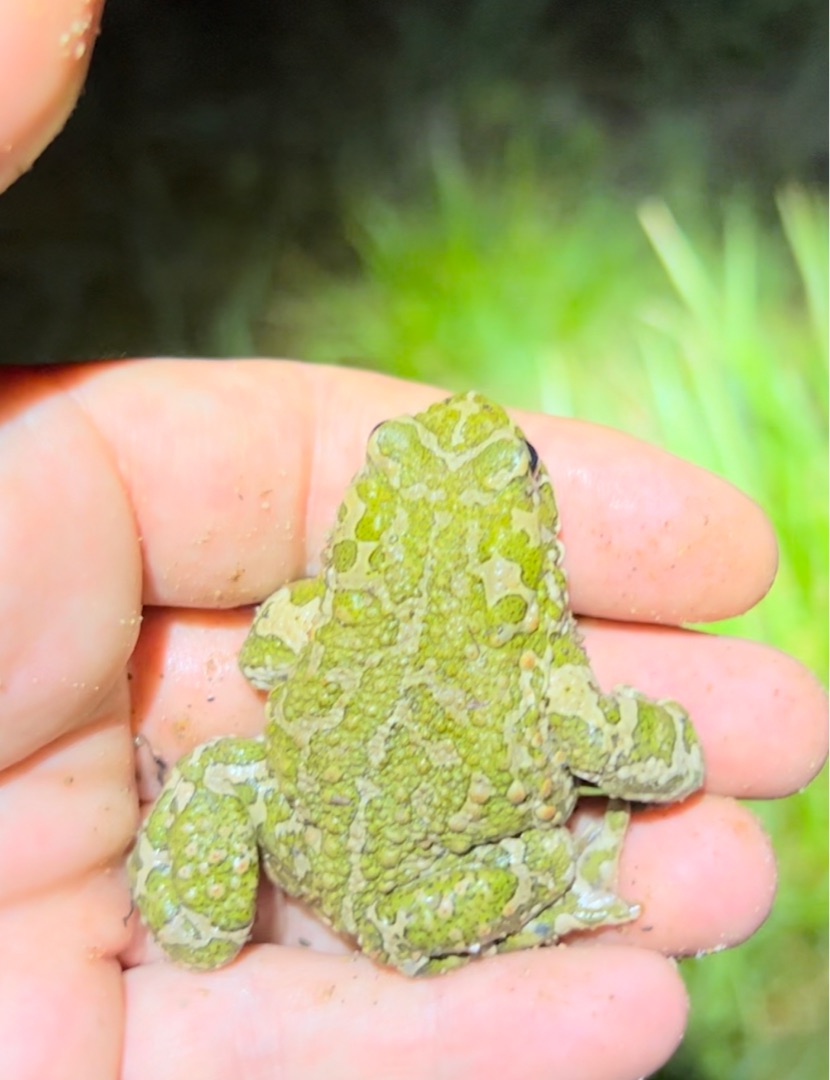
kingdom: Animalia
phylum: Chordata
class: Amphibia
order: Anura
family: Bufonidae
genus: Bufotes
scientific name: Bufotes viridis
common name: Grønbroget tudse
